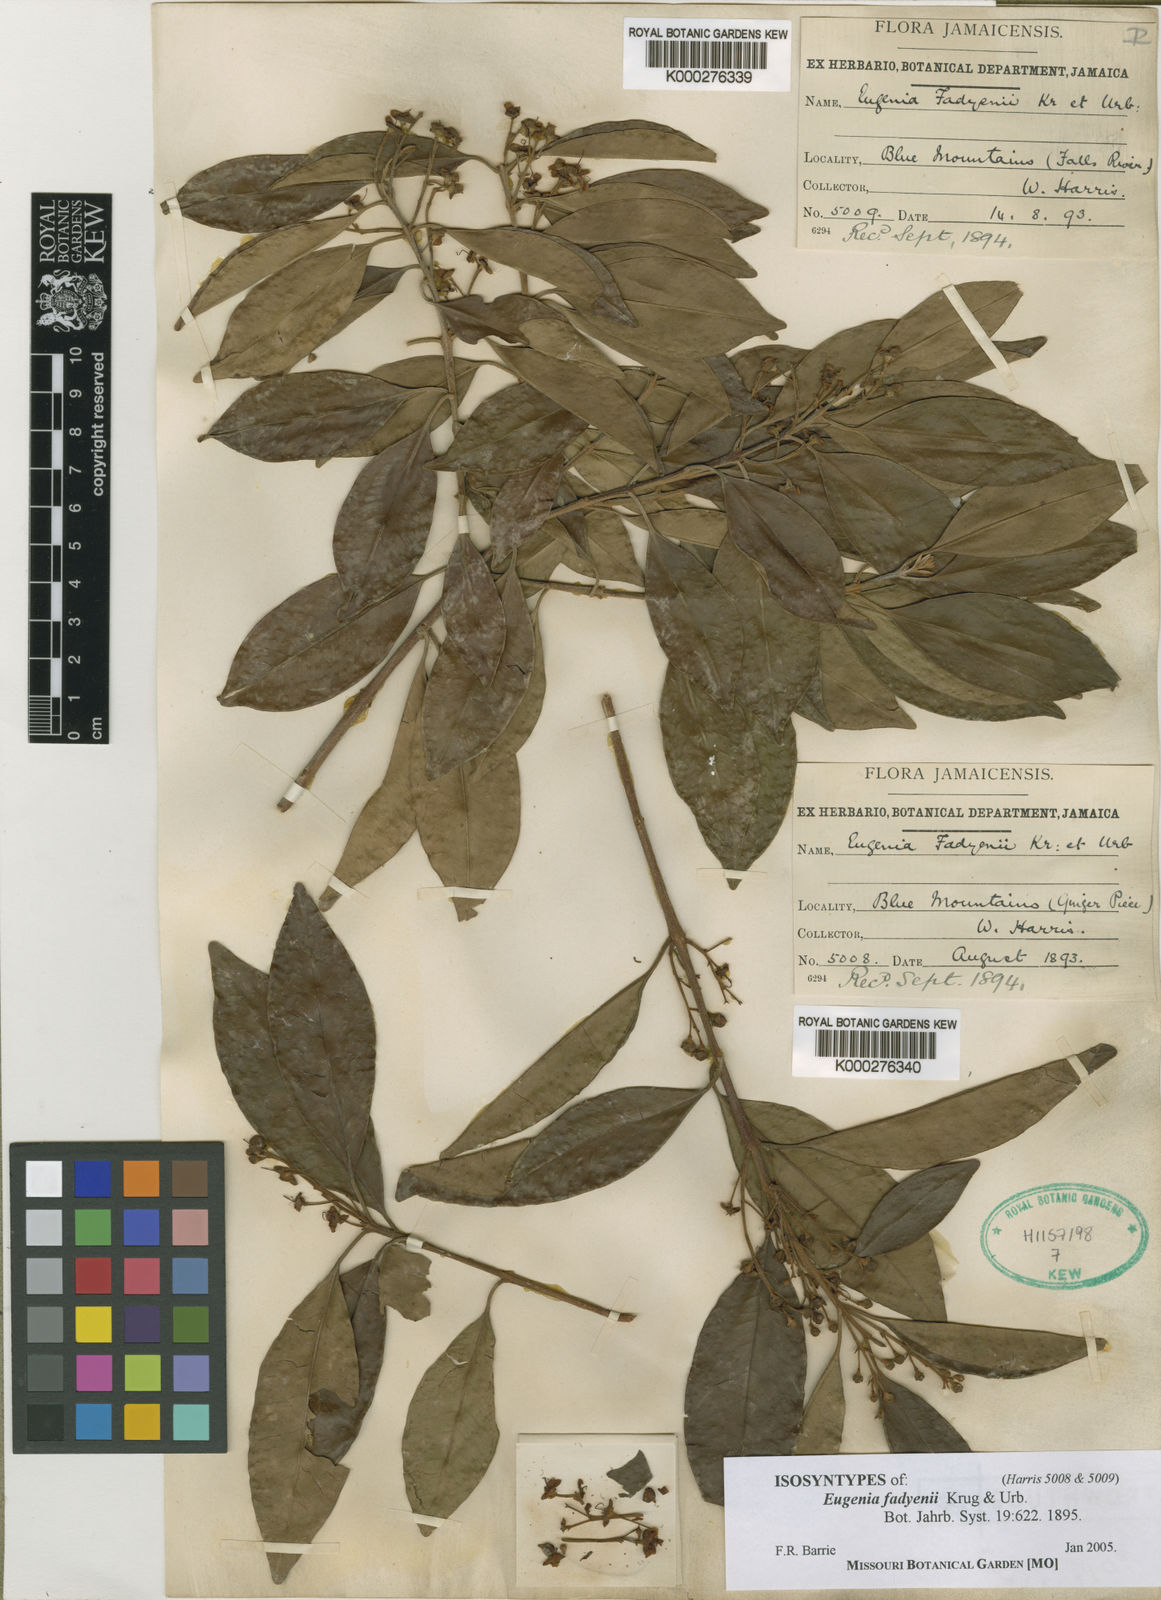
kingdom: Plantae
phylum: Tracheophyta
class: Magnoliopsida
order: Myrtales
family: Myrtaceae
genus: Eugenia
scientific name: Eugenia
